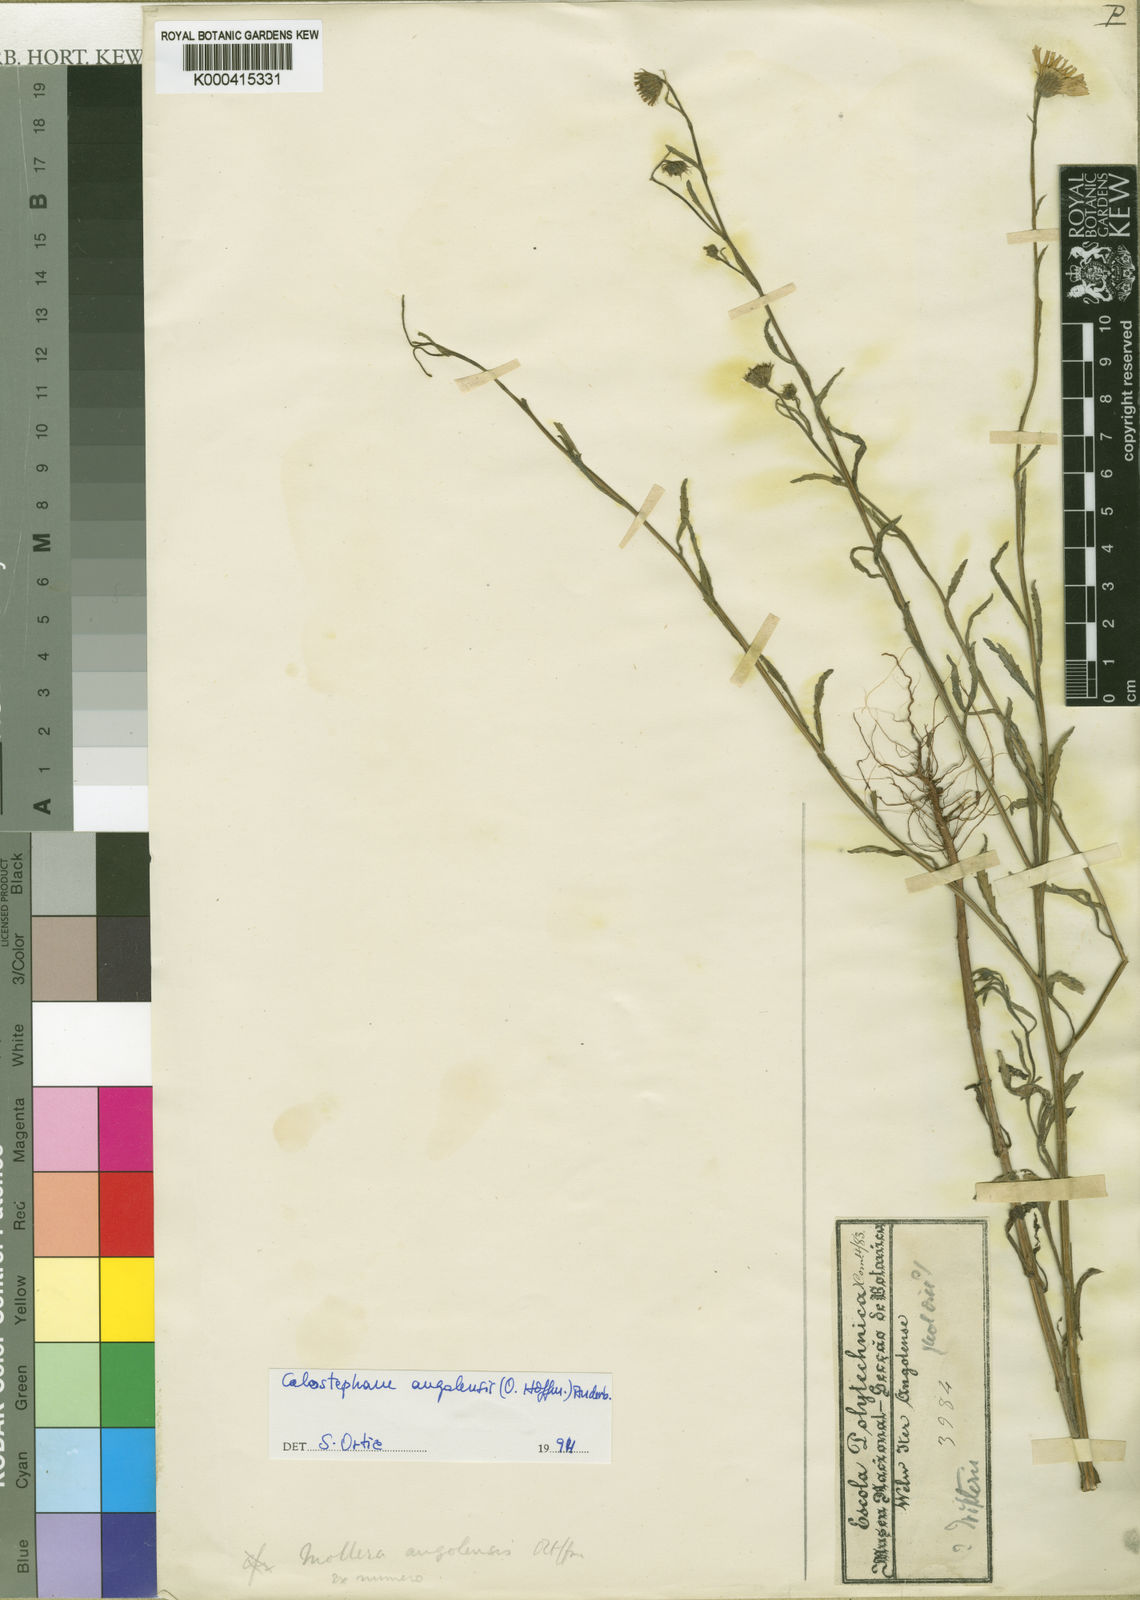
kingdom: Plantae
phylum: Tracheophyta
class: Magnoliopsida
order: Asterales
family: Asteraceae
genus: Calostephane
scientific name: Calostephane angolensis
